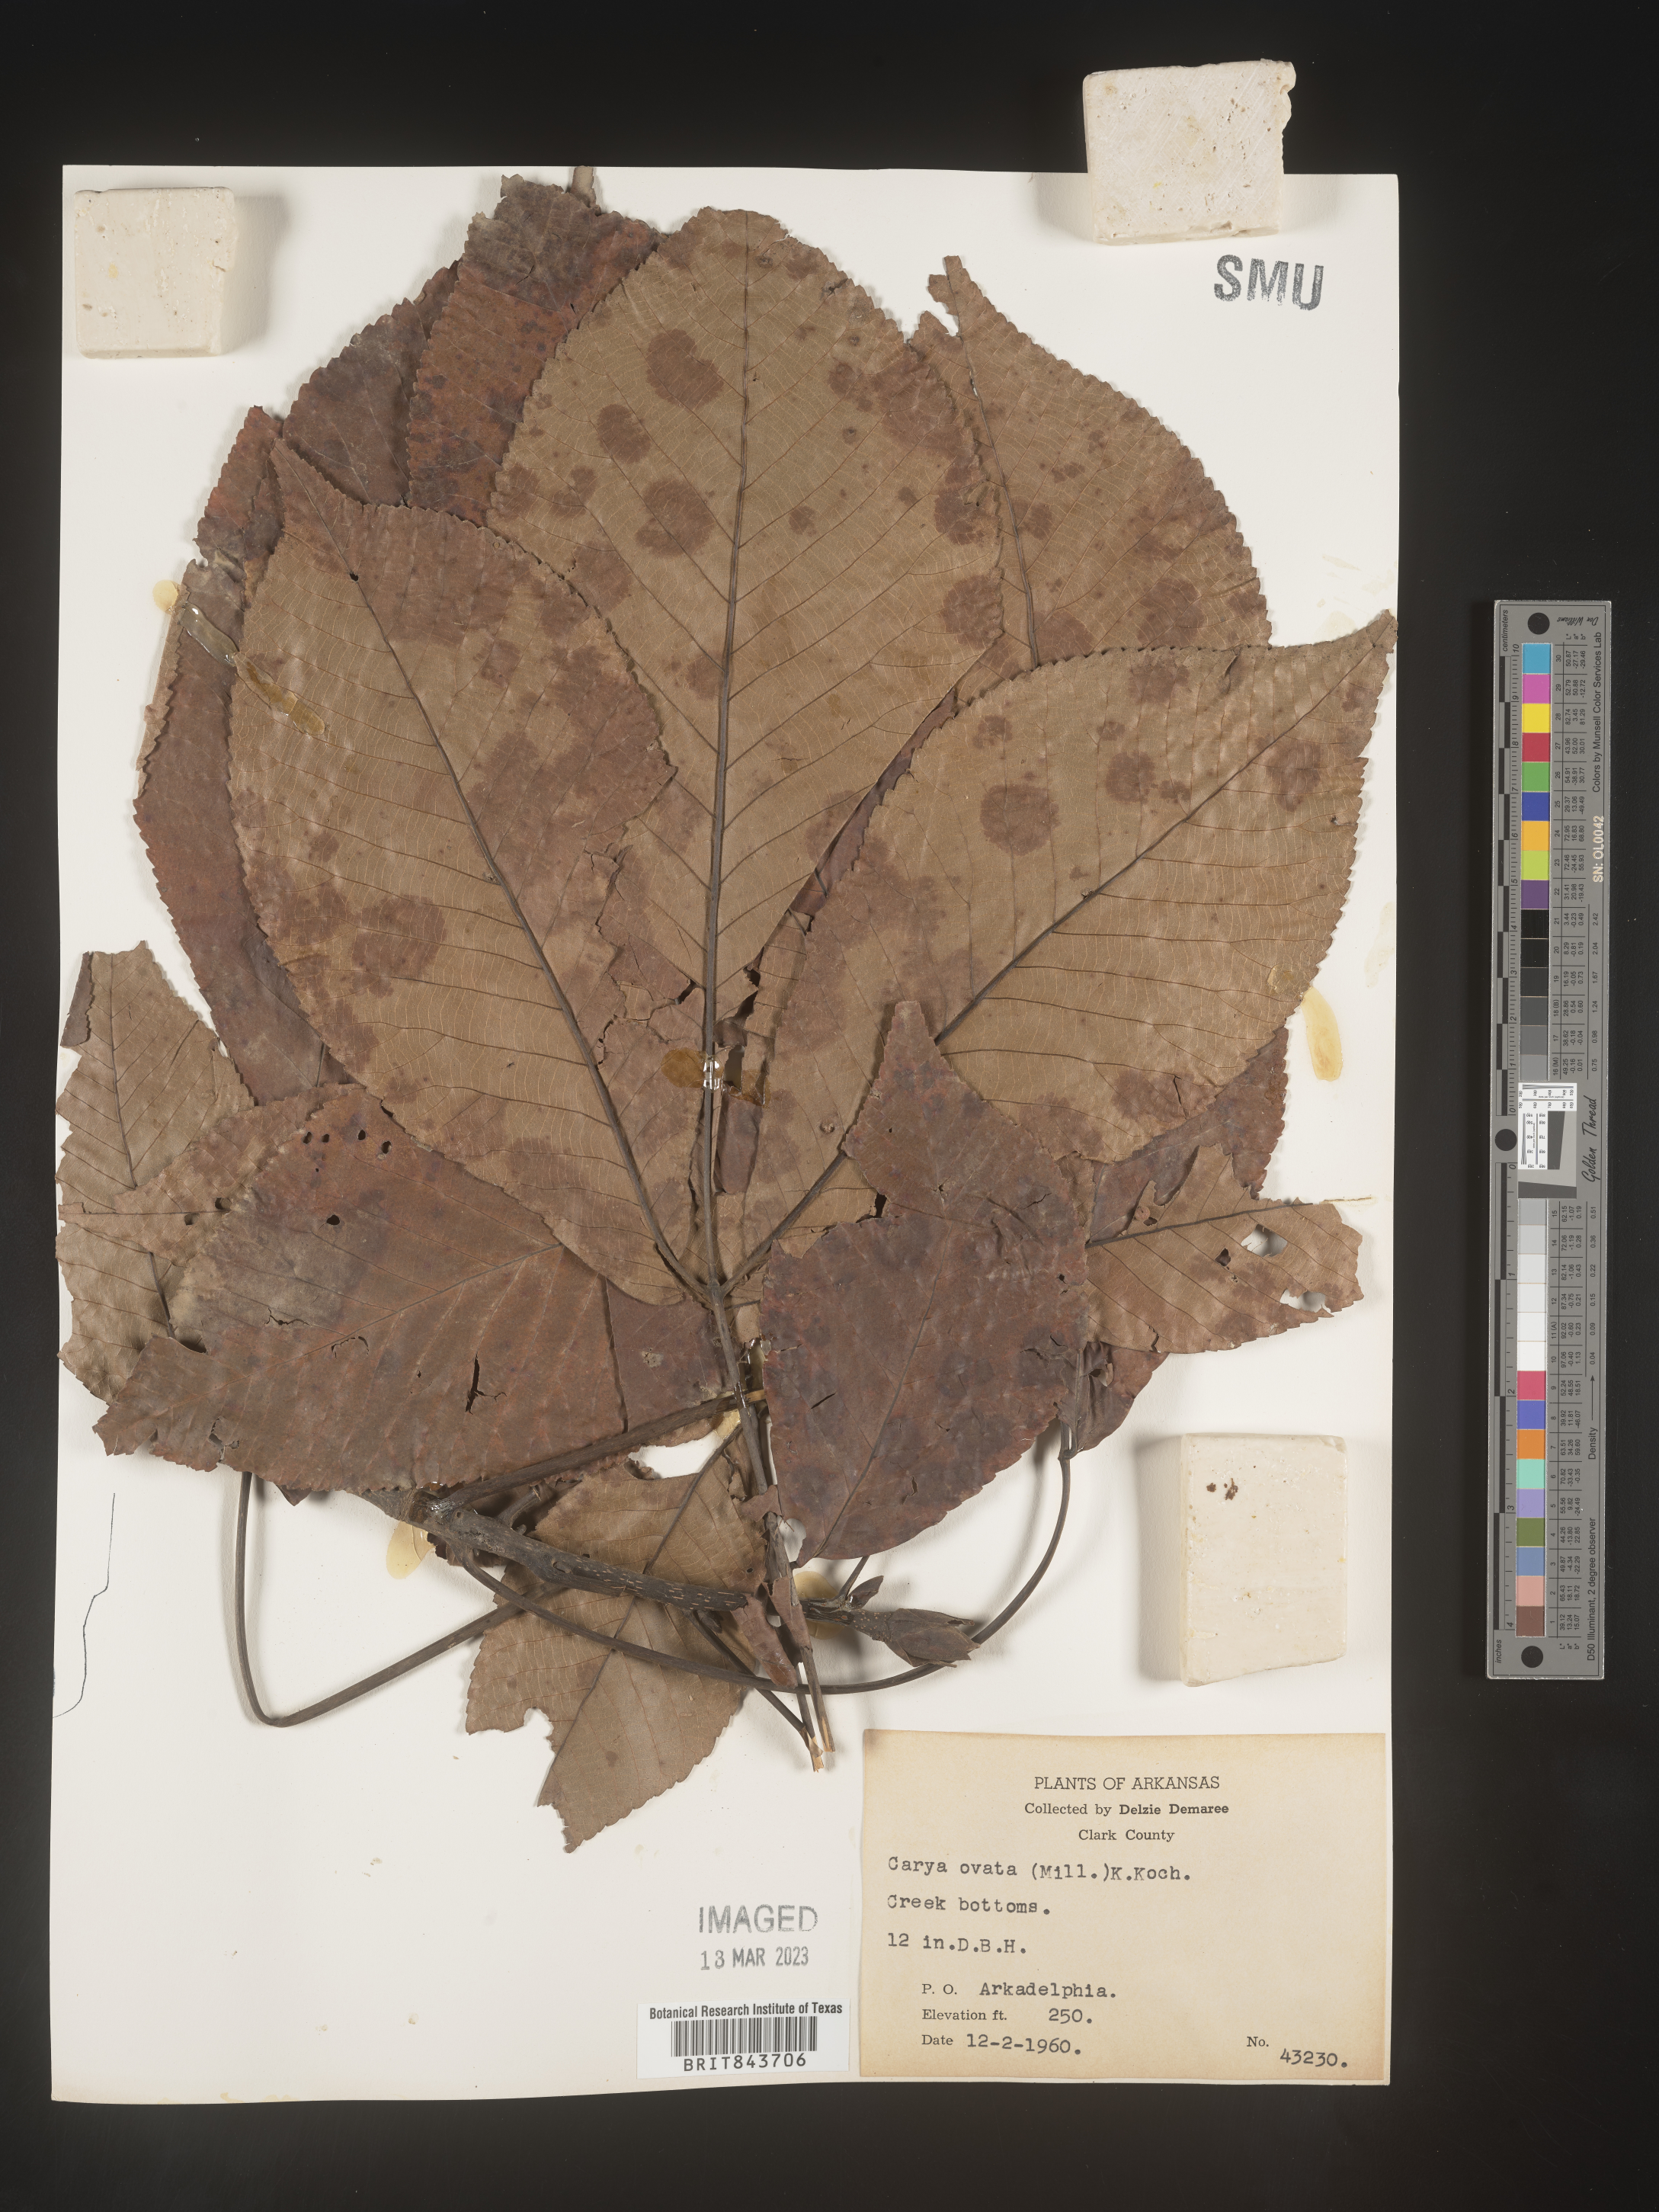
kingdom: Plantae
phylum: Tracheophyta
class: Magnoliopsida
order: Fagales
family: Juglandaceae
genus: Carya
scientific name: Carya ovata
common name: Shagbark hickory
